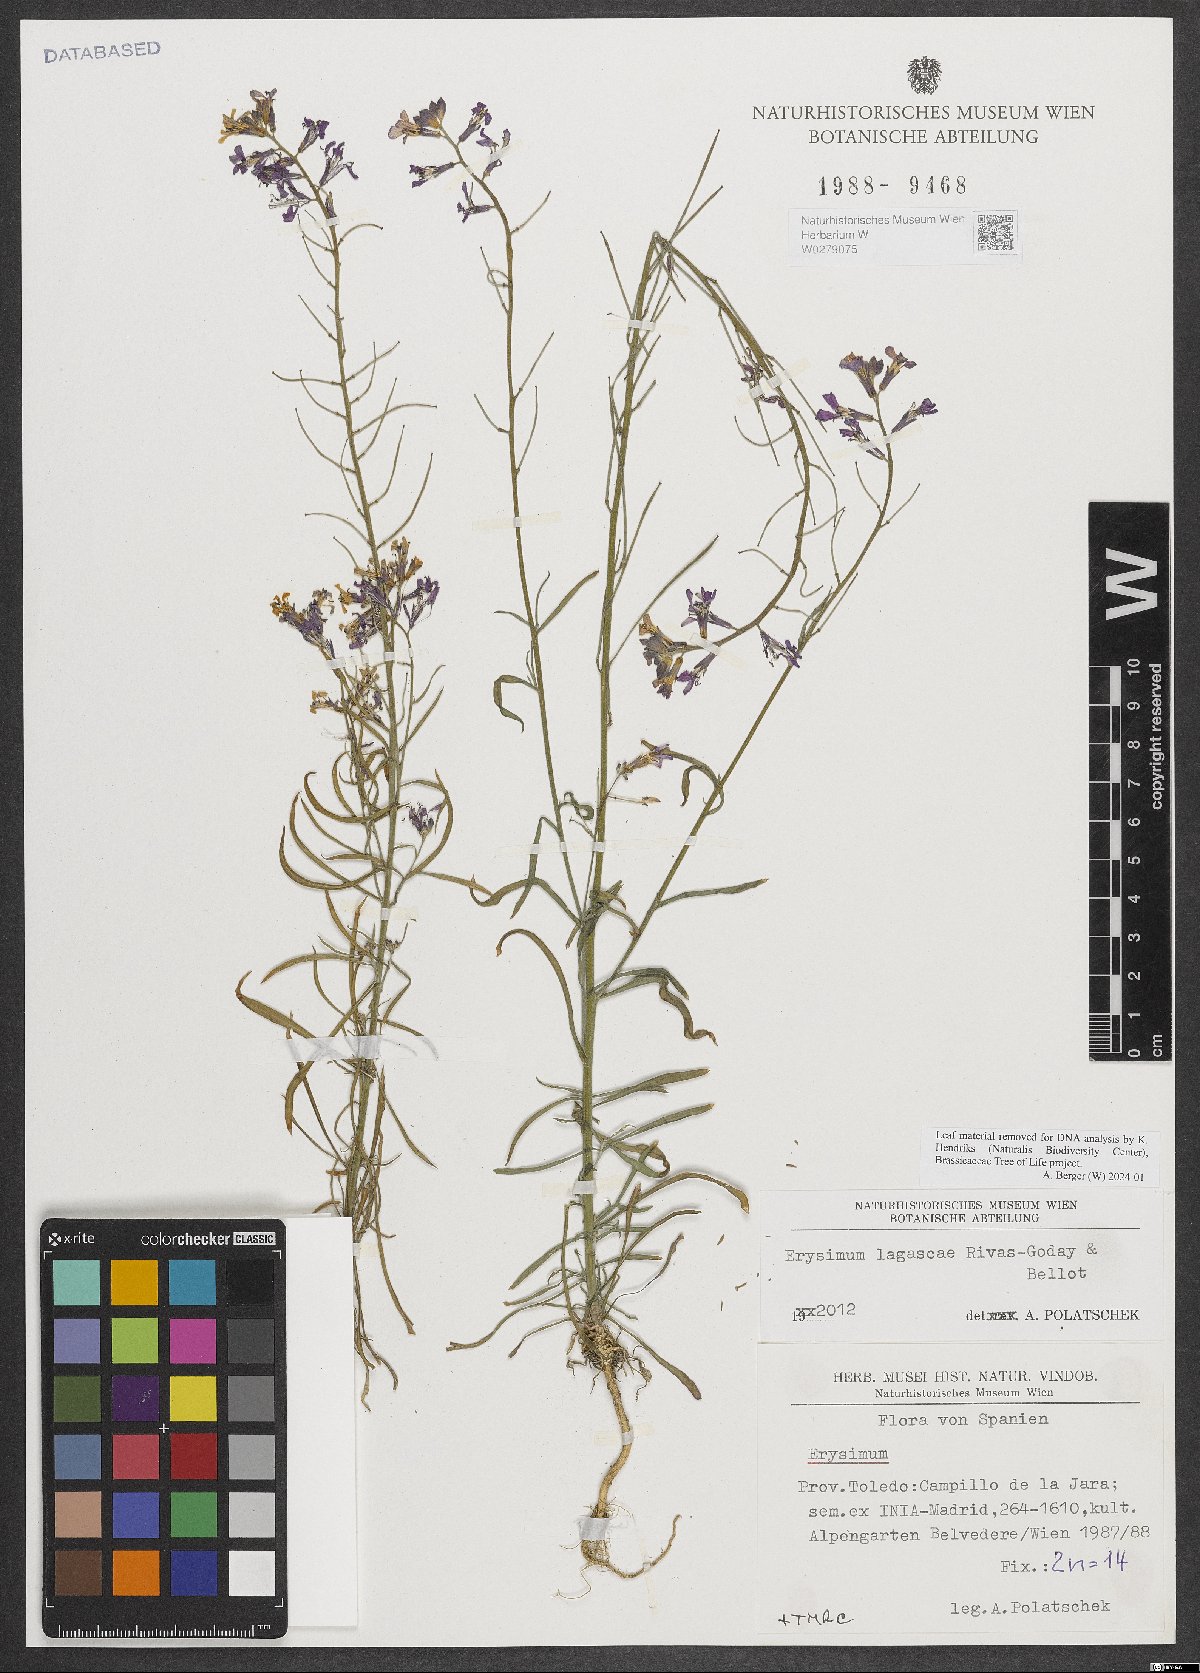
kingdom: Plantae
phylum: Tracheophyta
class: Magnoliopsida
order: Brassicales
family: Brassicaceae
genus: Erysimum
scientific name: Erysimum lagascae
